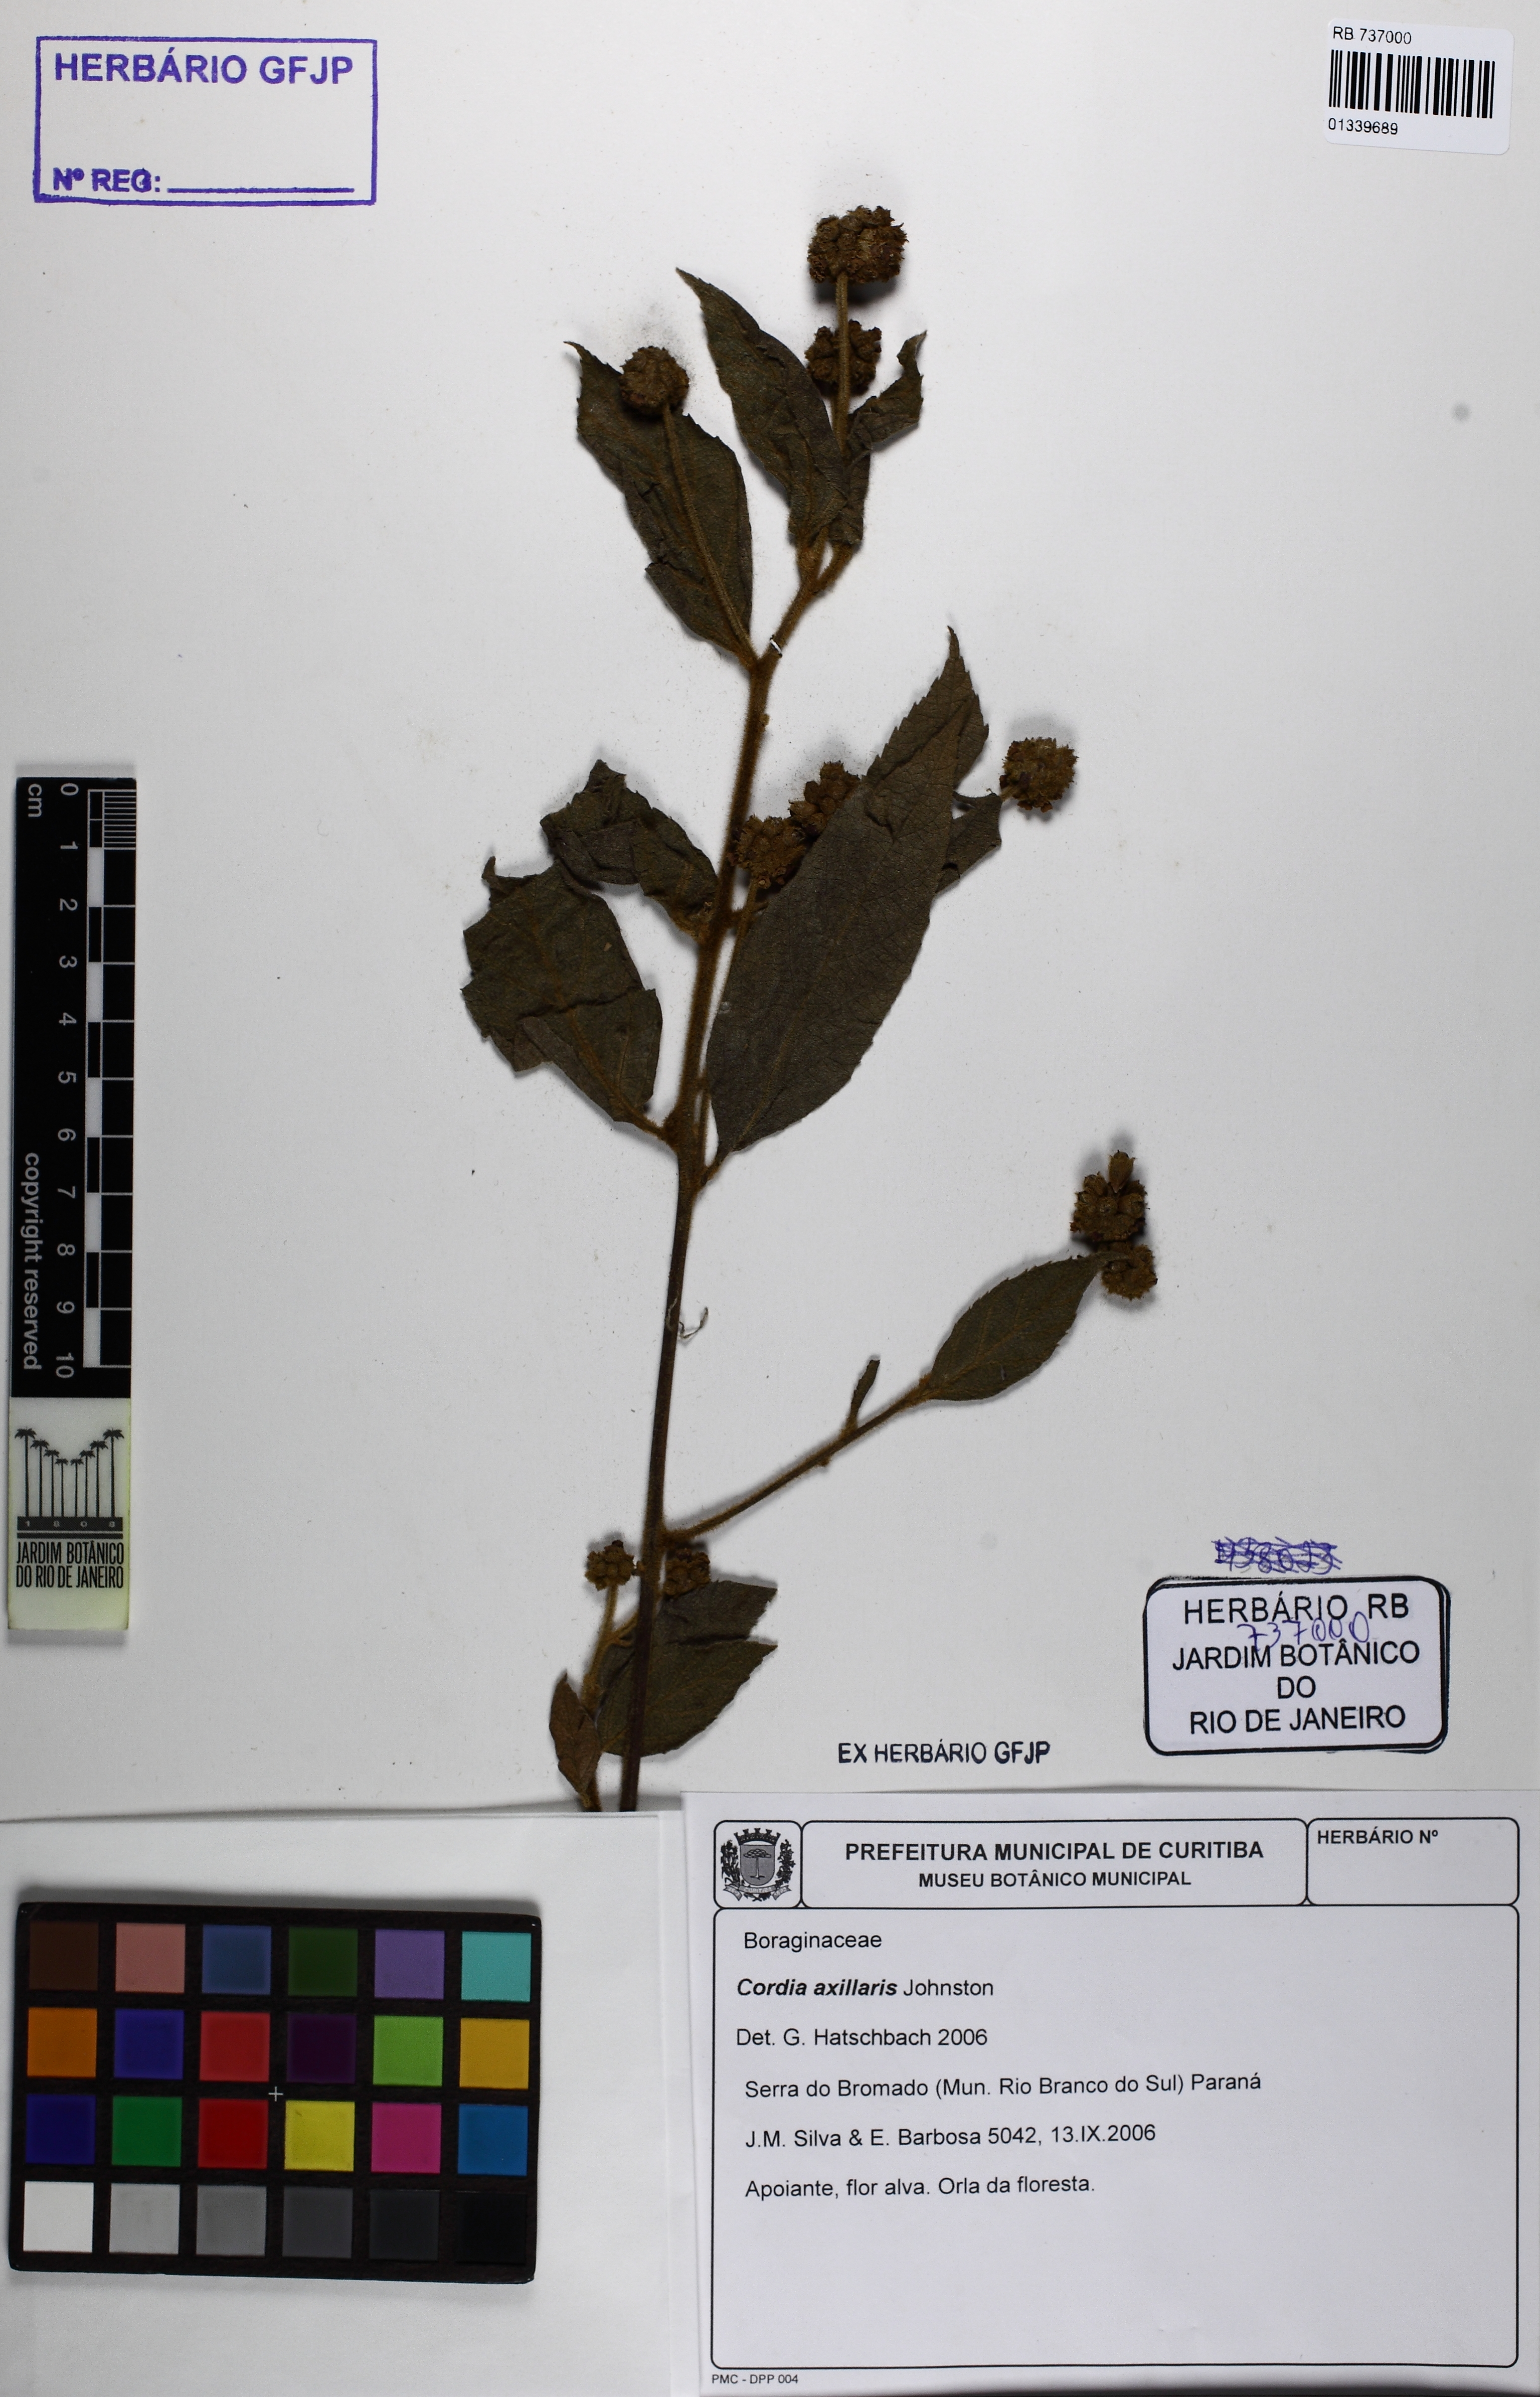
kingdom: Plantae
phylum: Tracheophyta
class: Magnoliopsida
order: Boraginales
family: Cordiaceae
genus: Varronia
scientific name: Varronia axillaris
